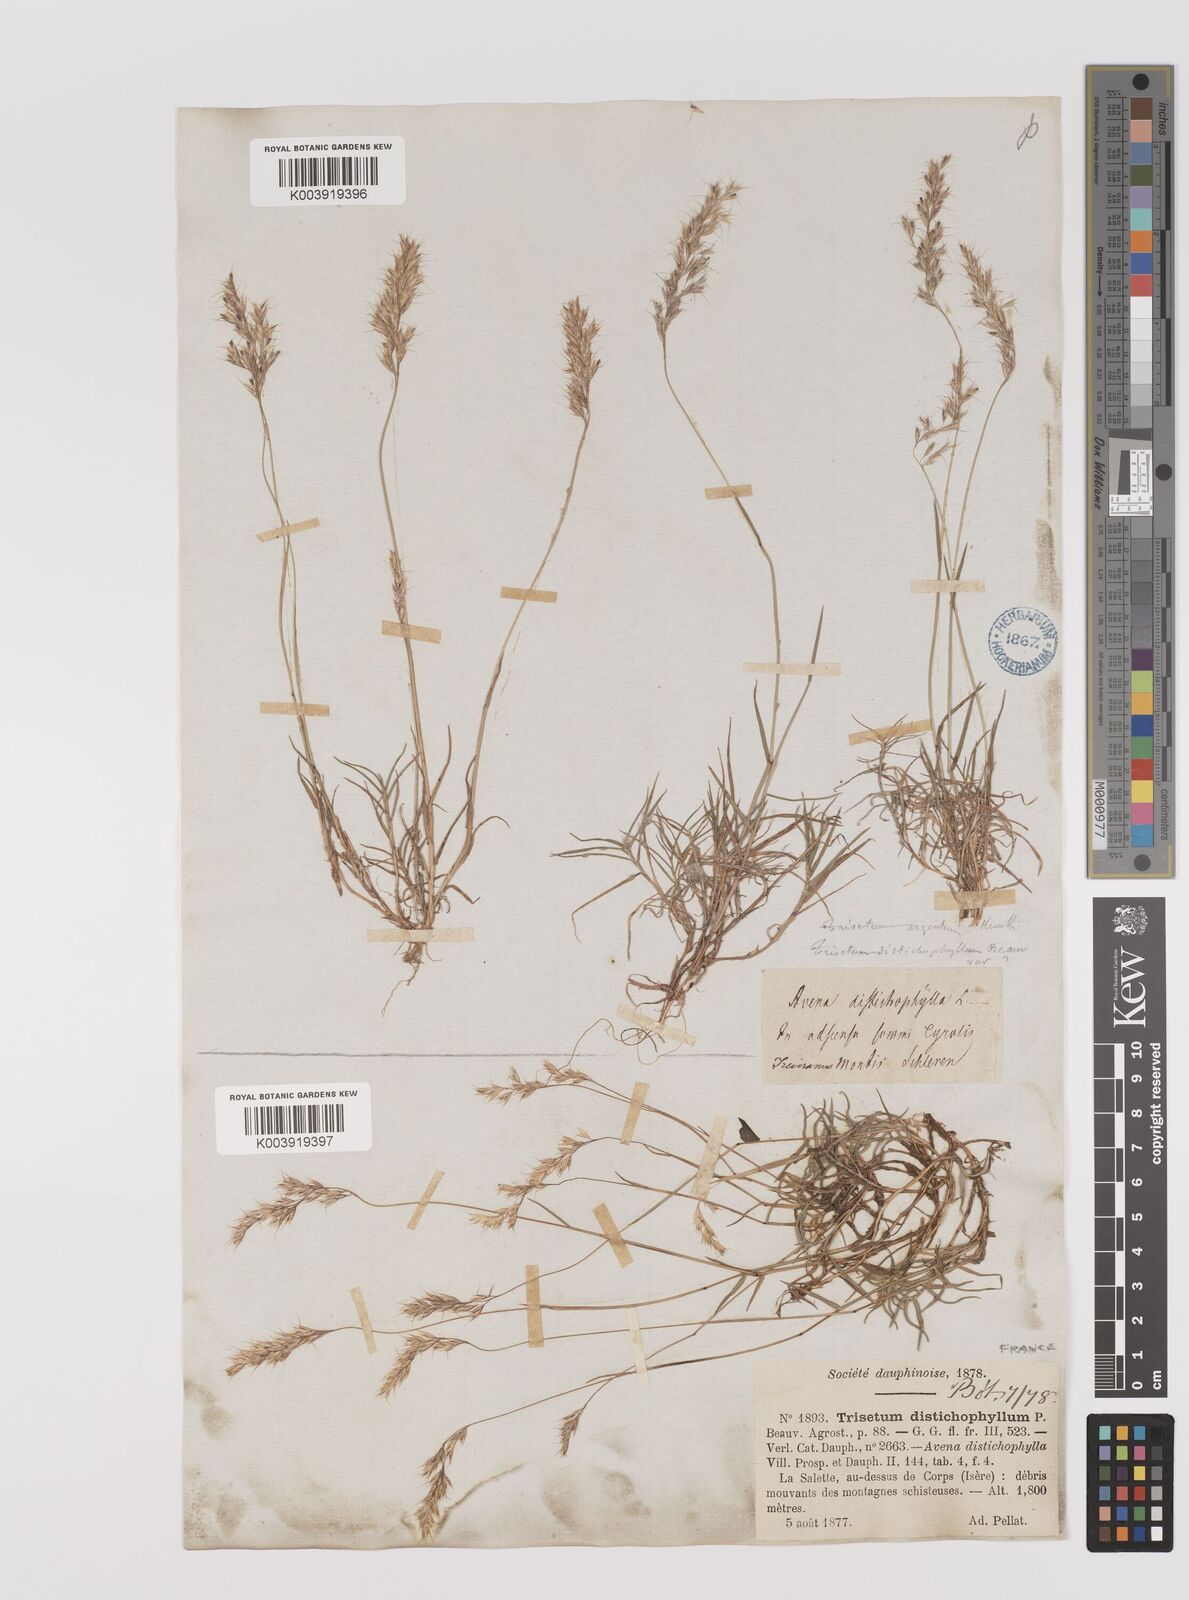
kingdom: Plantae
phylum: Tracheophyta
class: Liliopsida
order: Poales
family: Poaceae
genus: Acrospelion
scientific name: Acrospelion distichophyllum
